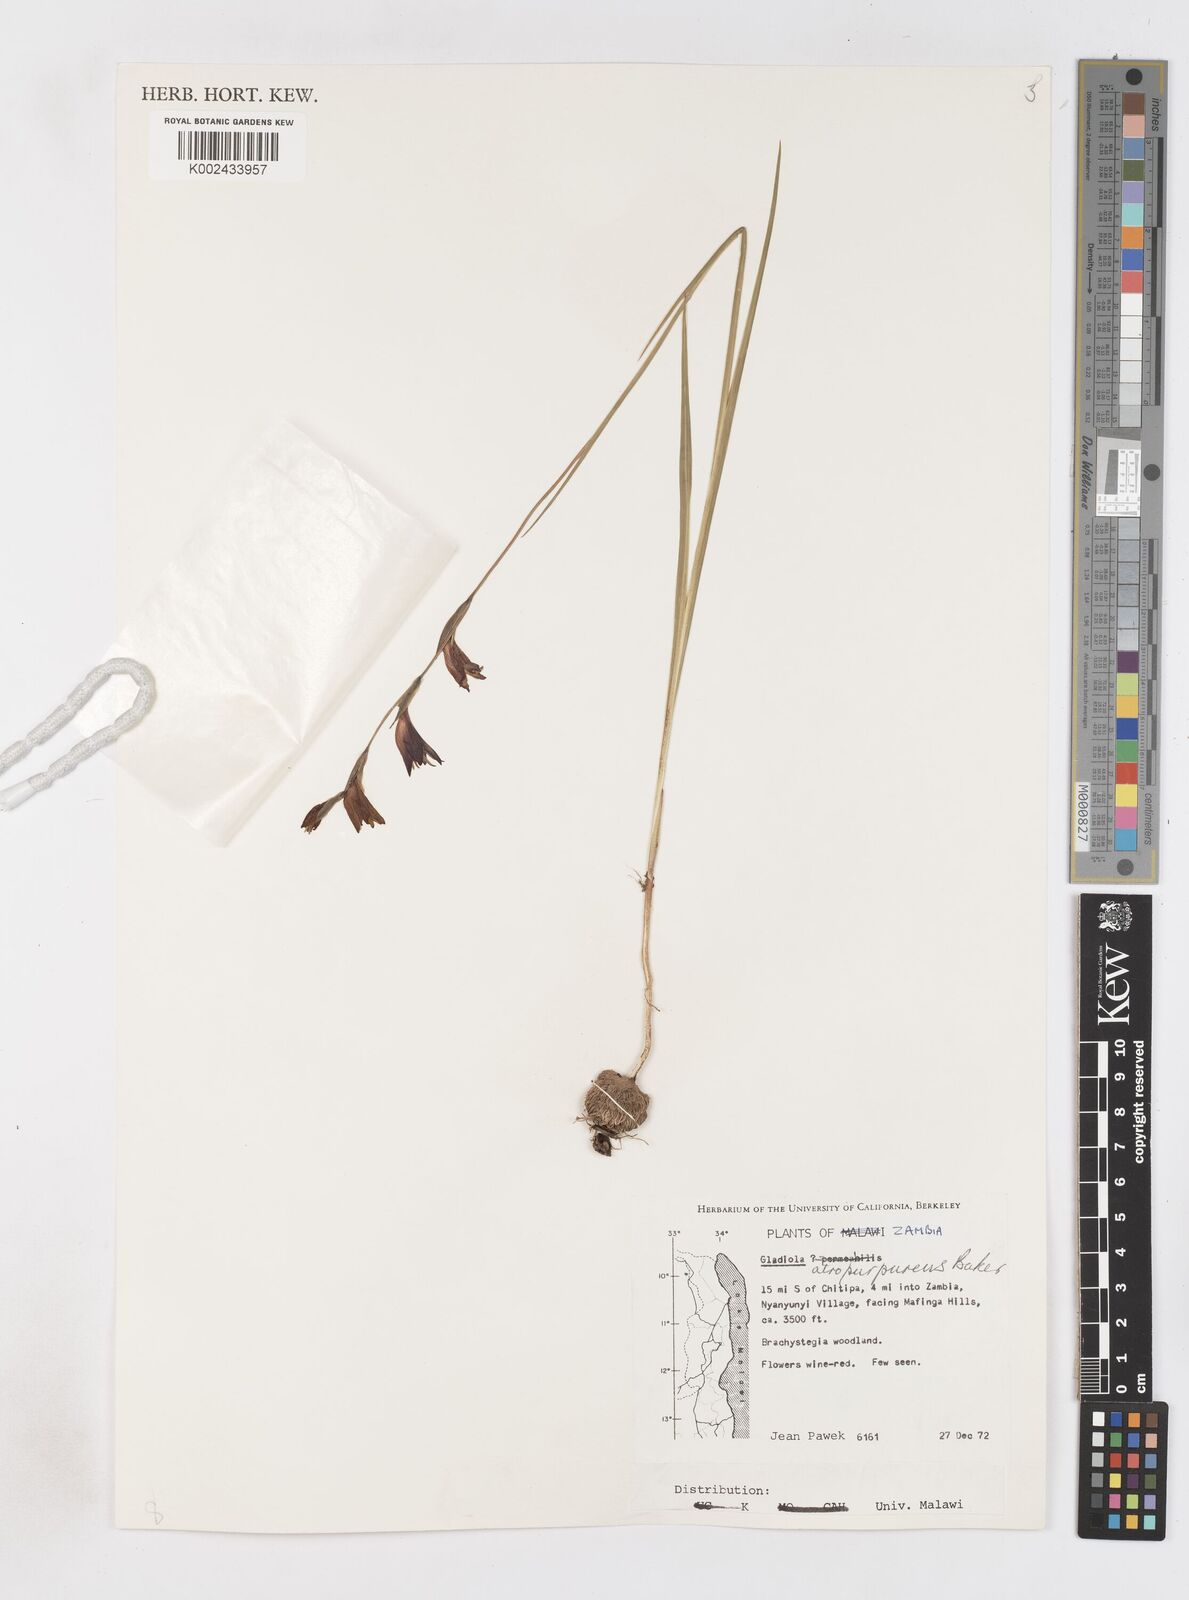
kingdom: Plantae
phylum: Tracheophyta
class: Liliopsida
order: Asparagales
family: Iridaceae
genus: Gladiolus
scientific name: Gladiolus atropurpureus
